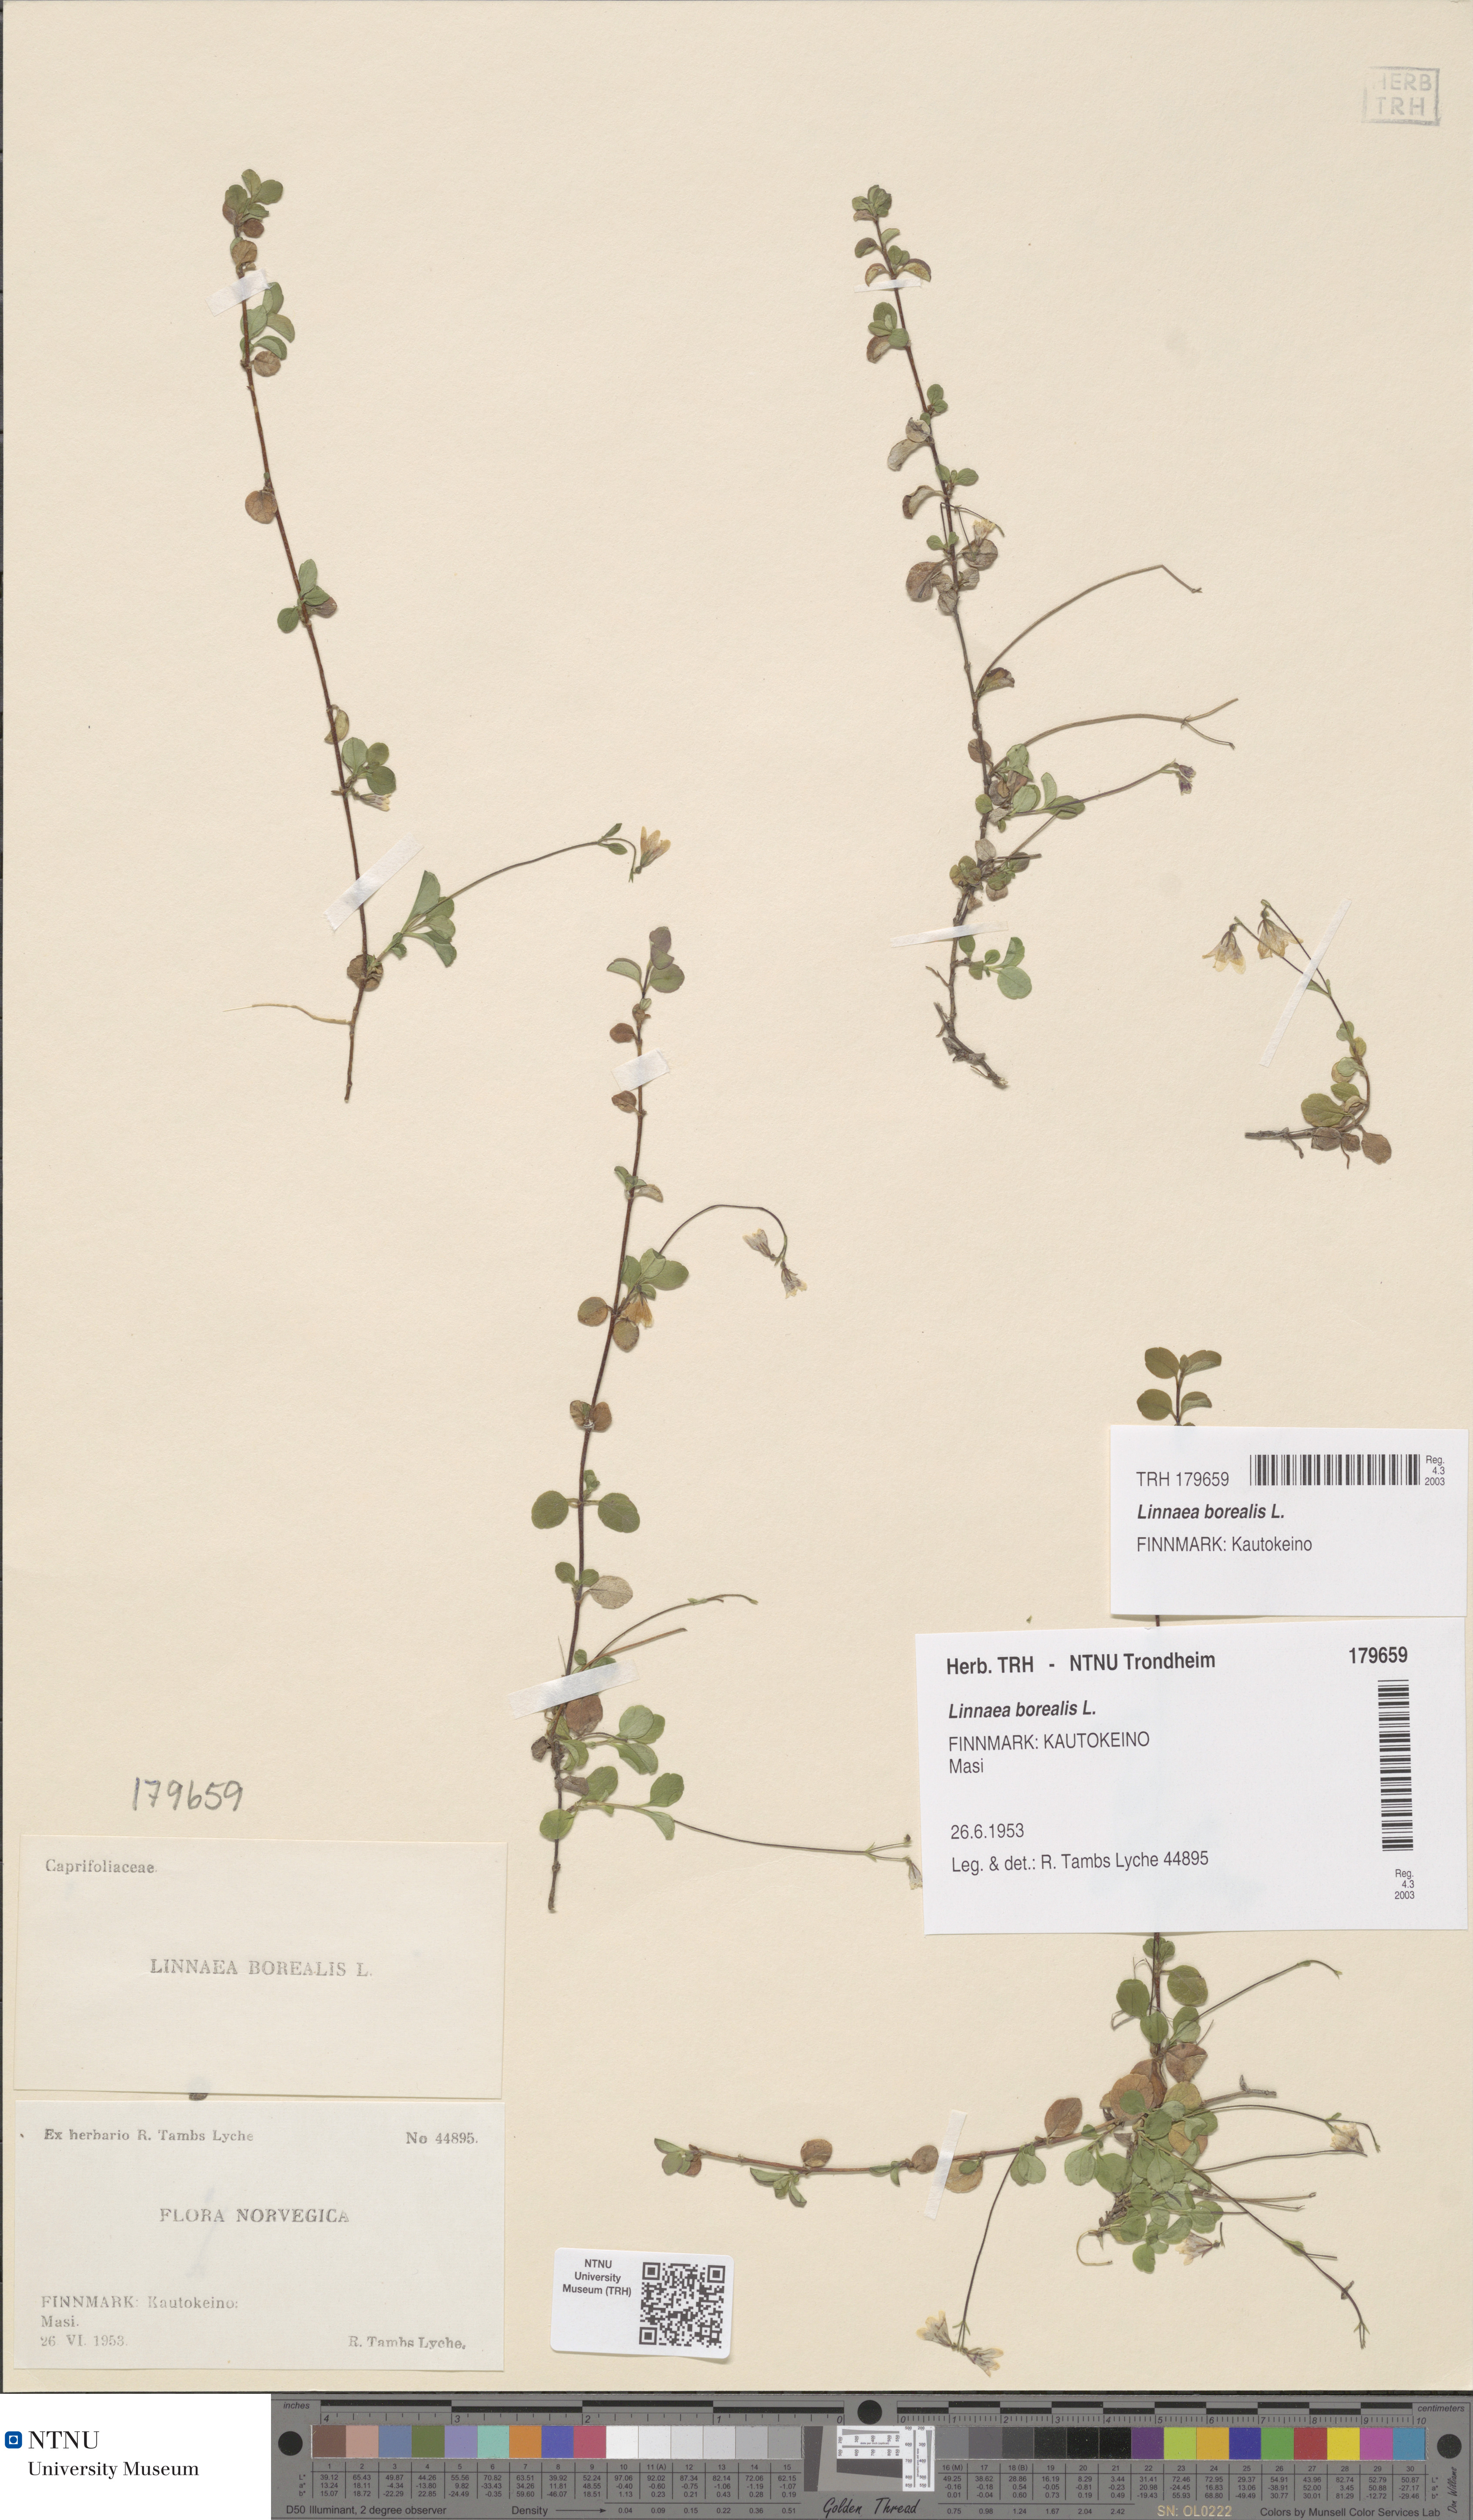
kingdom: Plantae
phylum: Tracheophyta
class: Magnoliopsida
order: Dipsacales
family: Caprifoliaceae
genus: Linnaea
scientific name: Linnaea borealis
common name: Twinflower
